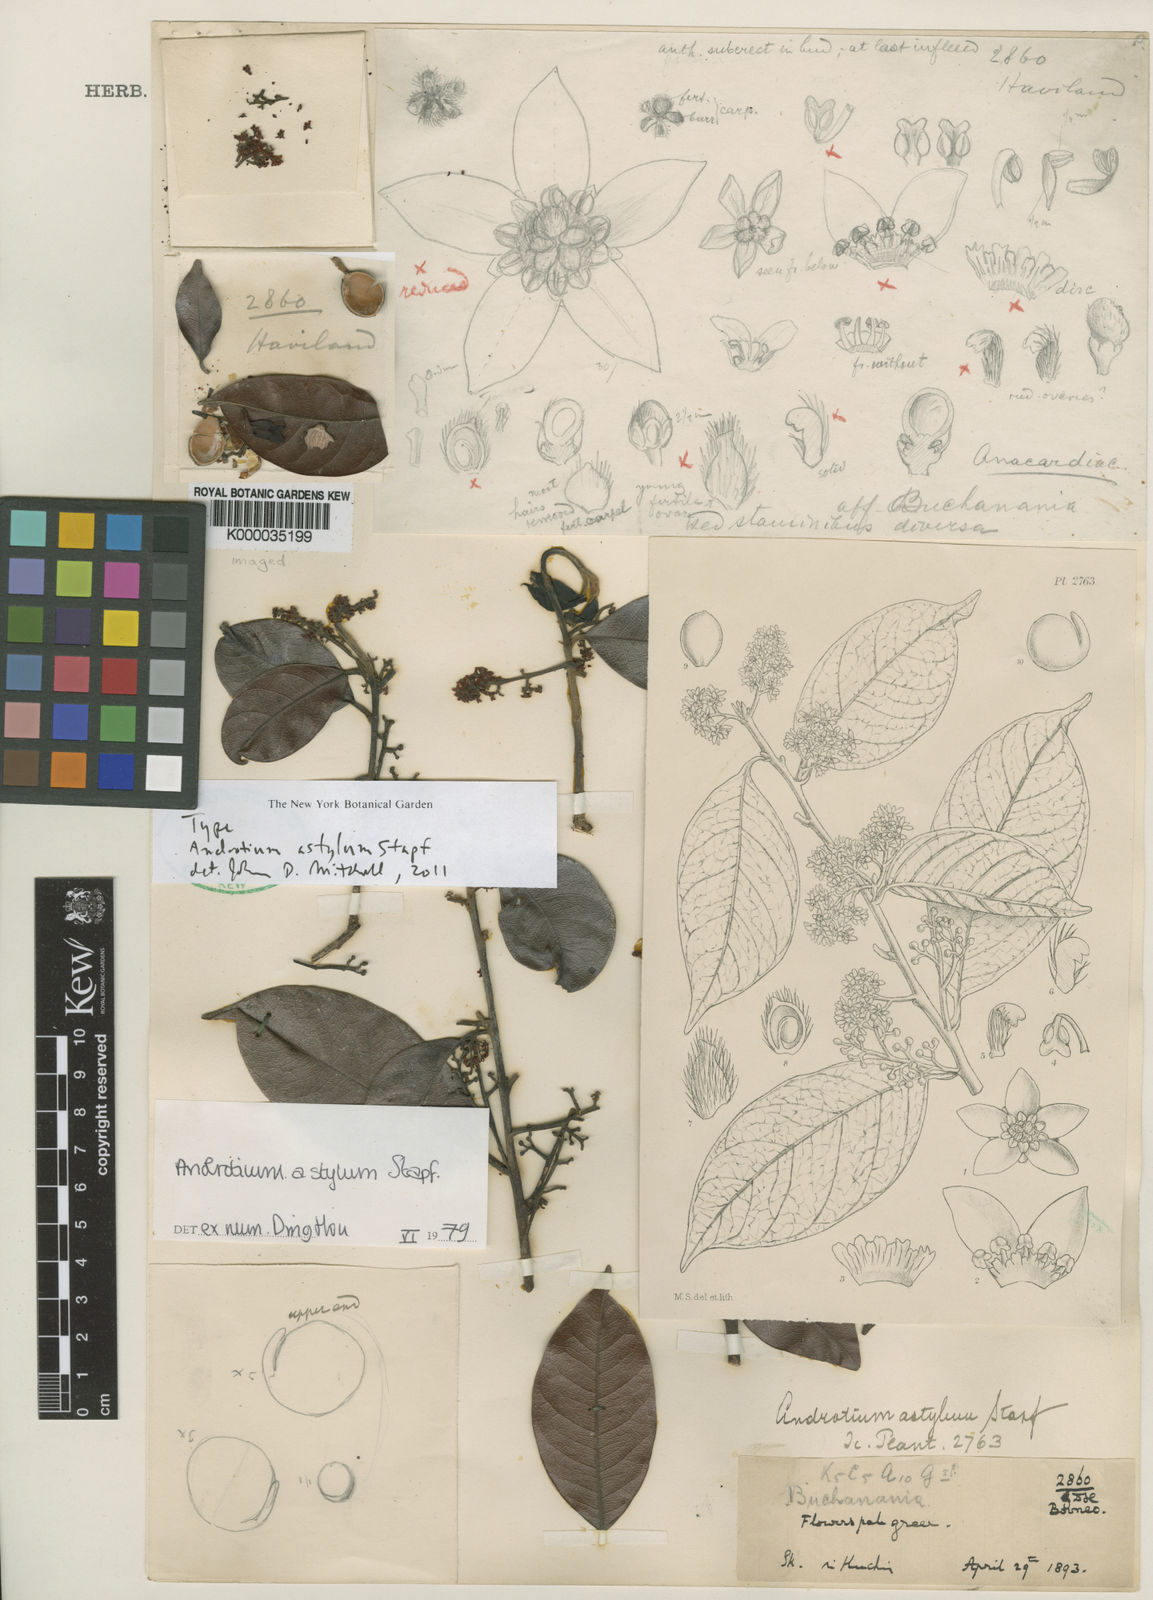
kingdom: Plantae
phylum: Tracheophyta
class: Magnoliopsida
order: Sapindales
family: Anacardiaceae
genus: Androtium
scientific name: Androtium astylum
